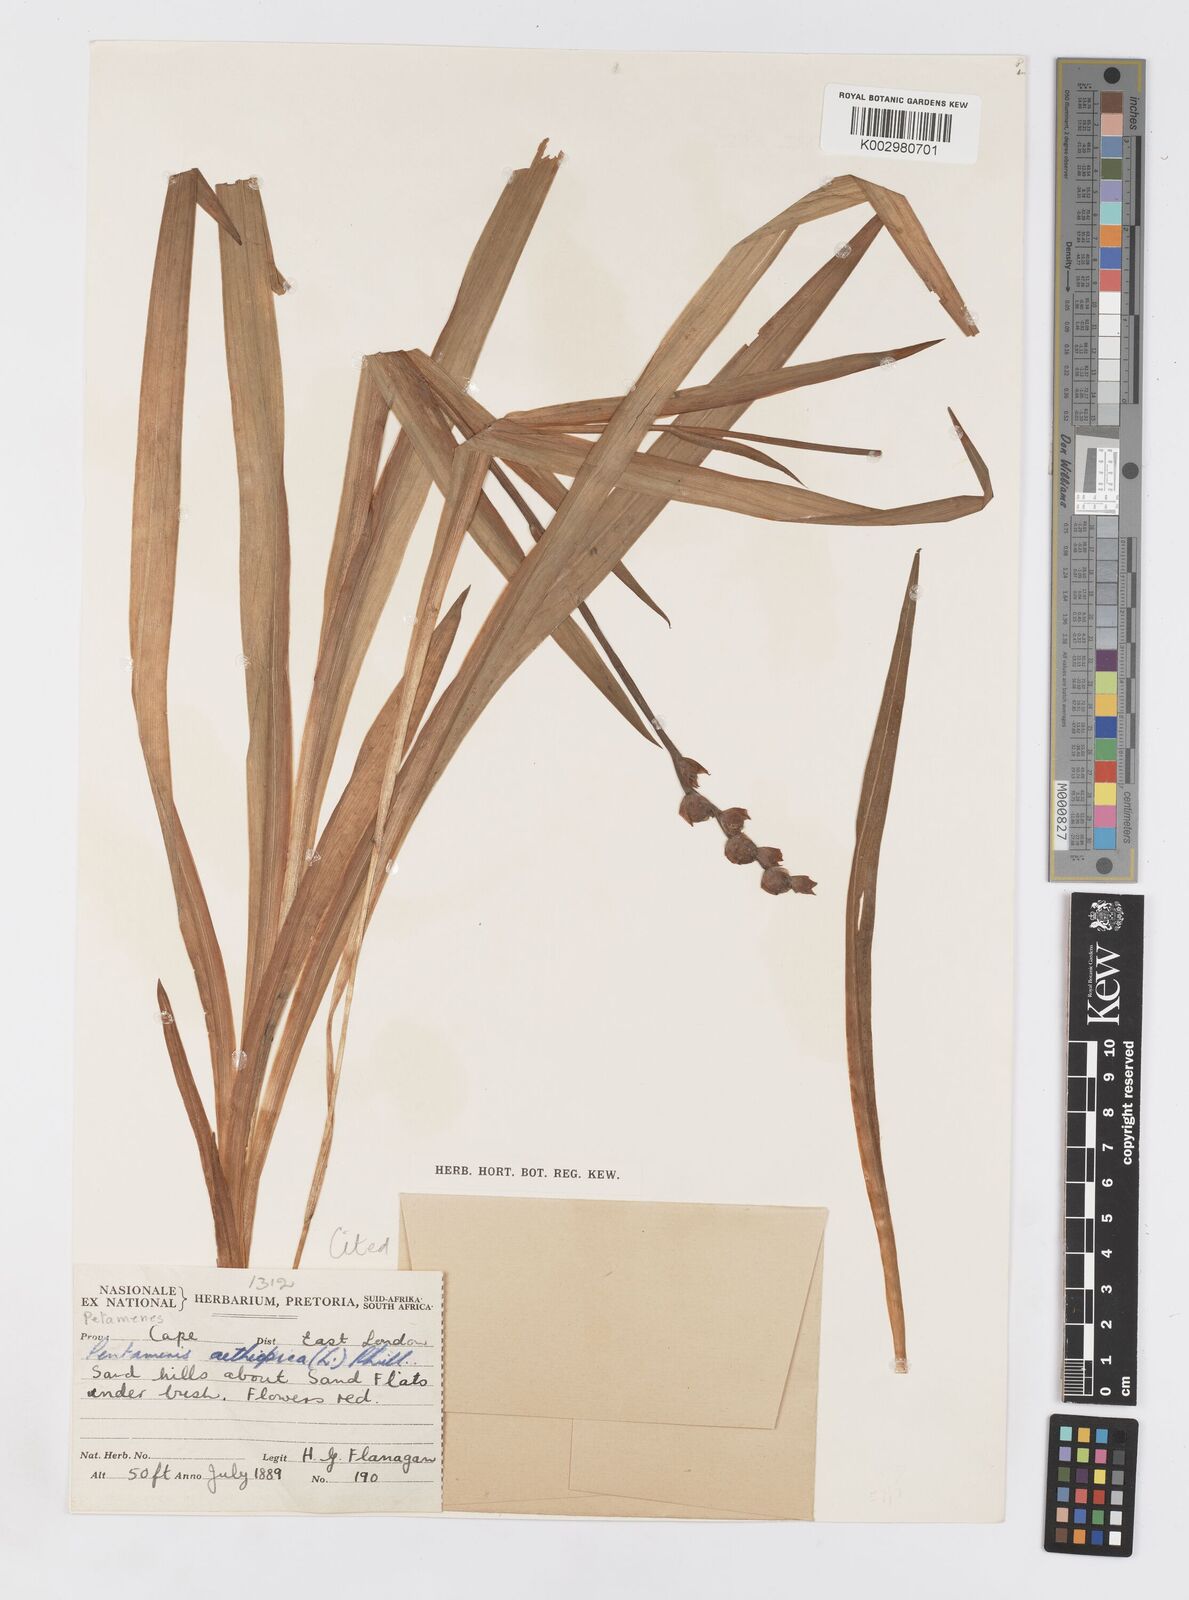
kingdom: Plantae
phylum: Tracheophyta
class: Liliopsida
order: Asparagales
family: Iridaceae
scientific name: Iridaceae
